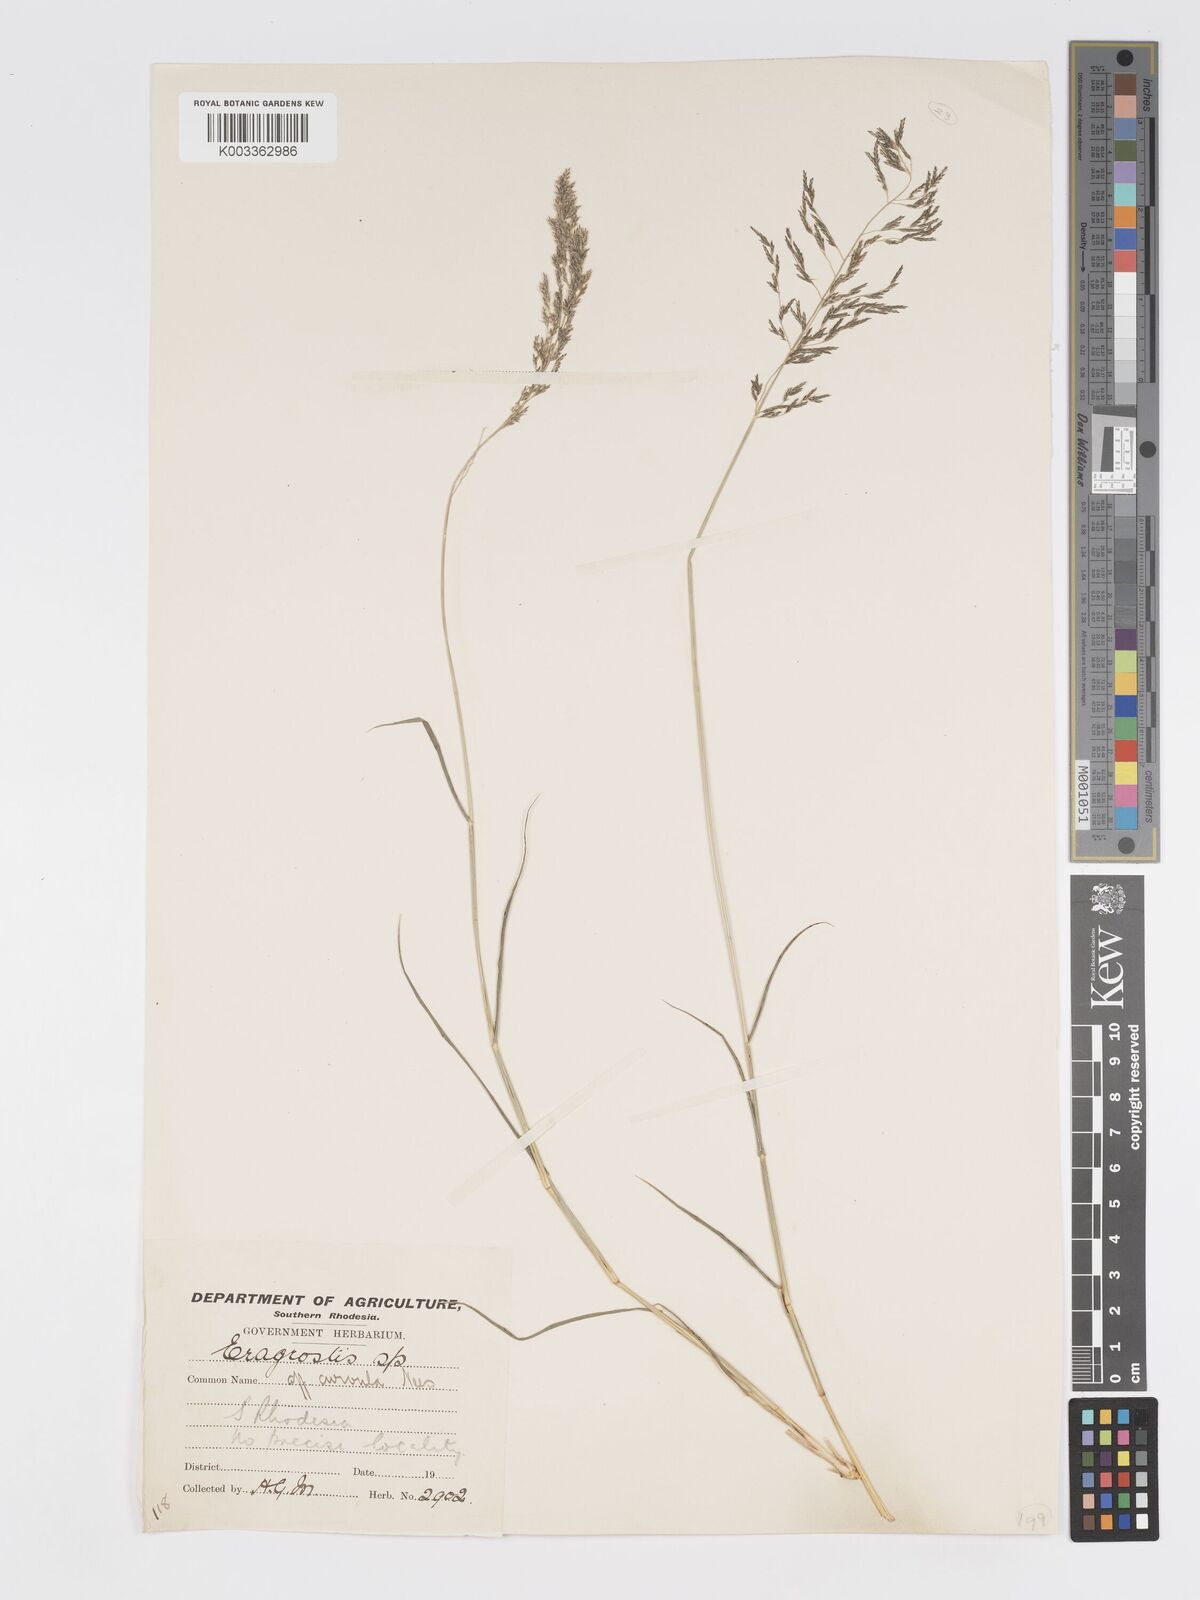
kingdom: Plantae
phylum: Tracheophyta
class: Liliopsida
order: Poales
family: Poaceae
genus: Eragrostis
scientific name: Eragrostis cylindriflora
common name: Cylinderflower lovegrass
